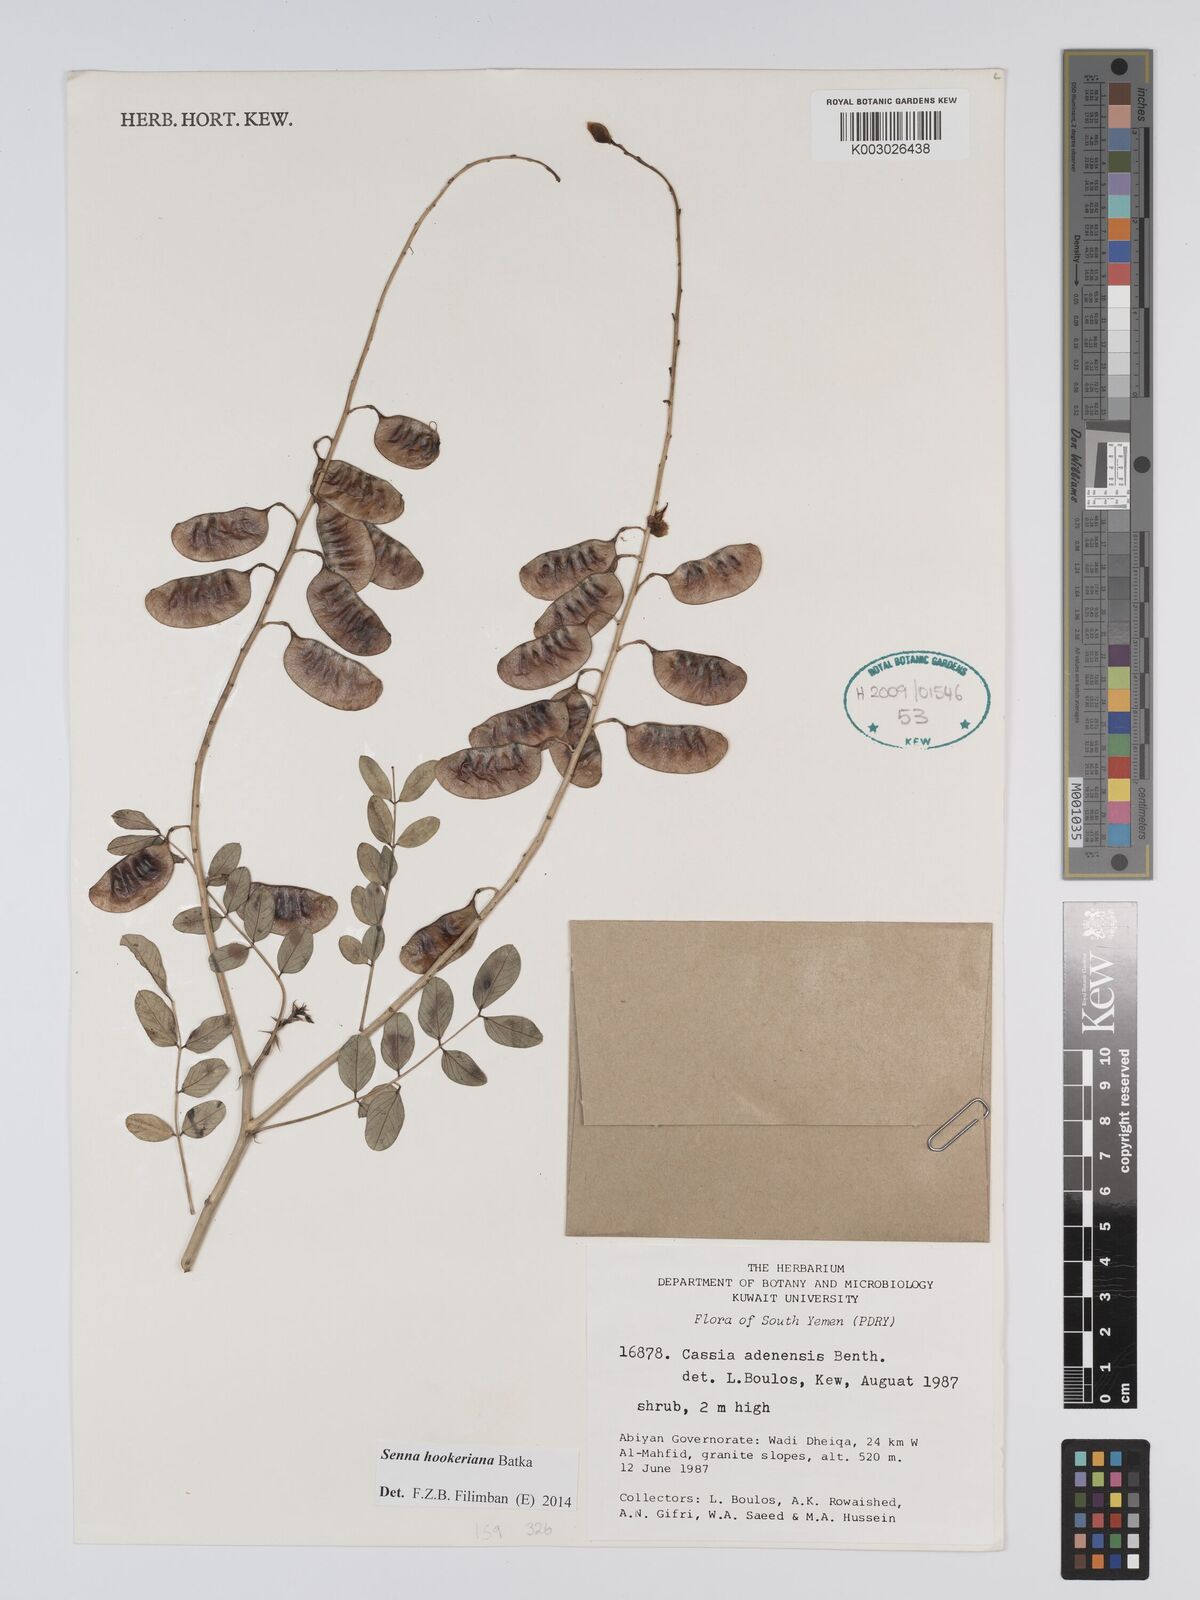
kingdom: Plantae
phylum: Tracheophyta
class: Magnoliopsida
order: Fabales
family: Fabaceae
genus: Senna
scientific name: Senna birostris
